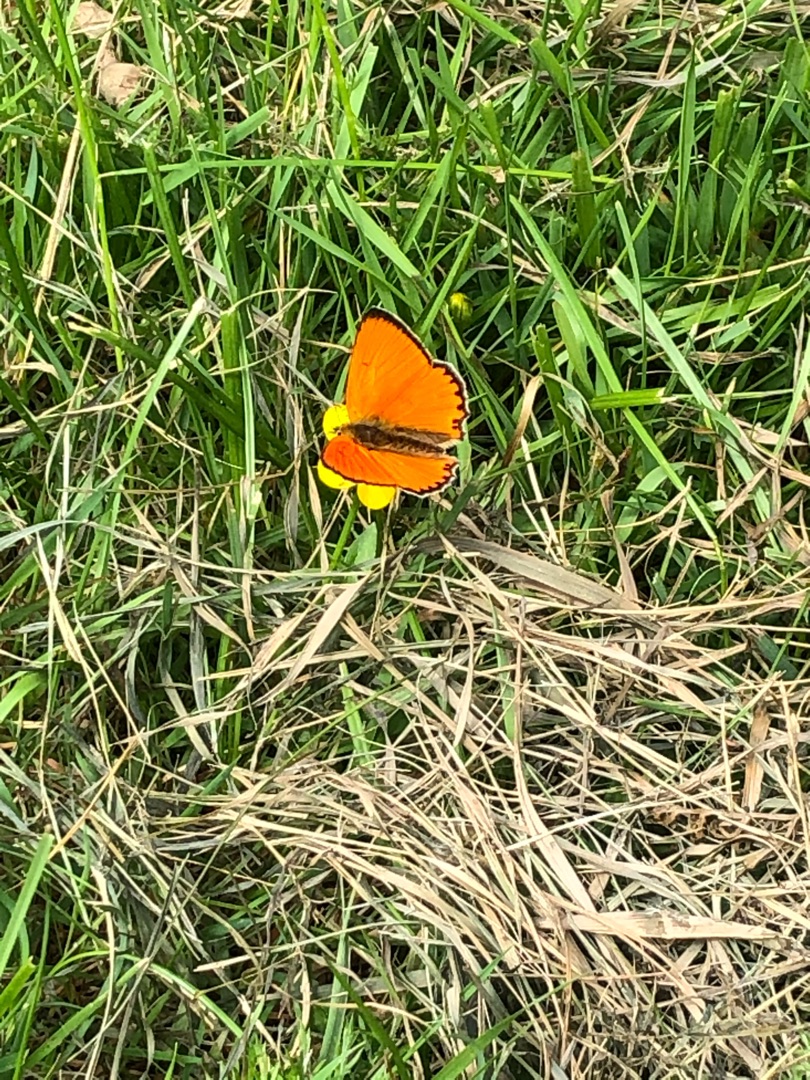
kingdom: Animalia
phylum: Arthropoda
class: Insecta
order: Lepidoptera
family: Lycaenidae
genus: Lycaena
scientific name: Lycaena virgaureae
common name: Dukatsommerfugl
